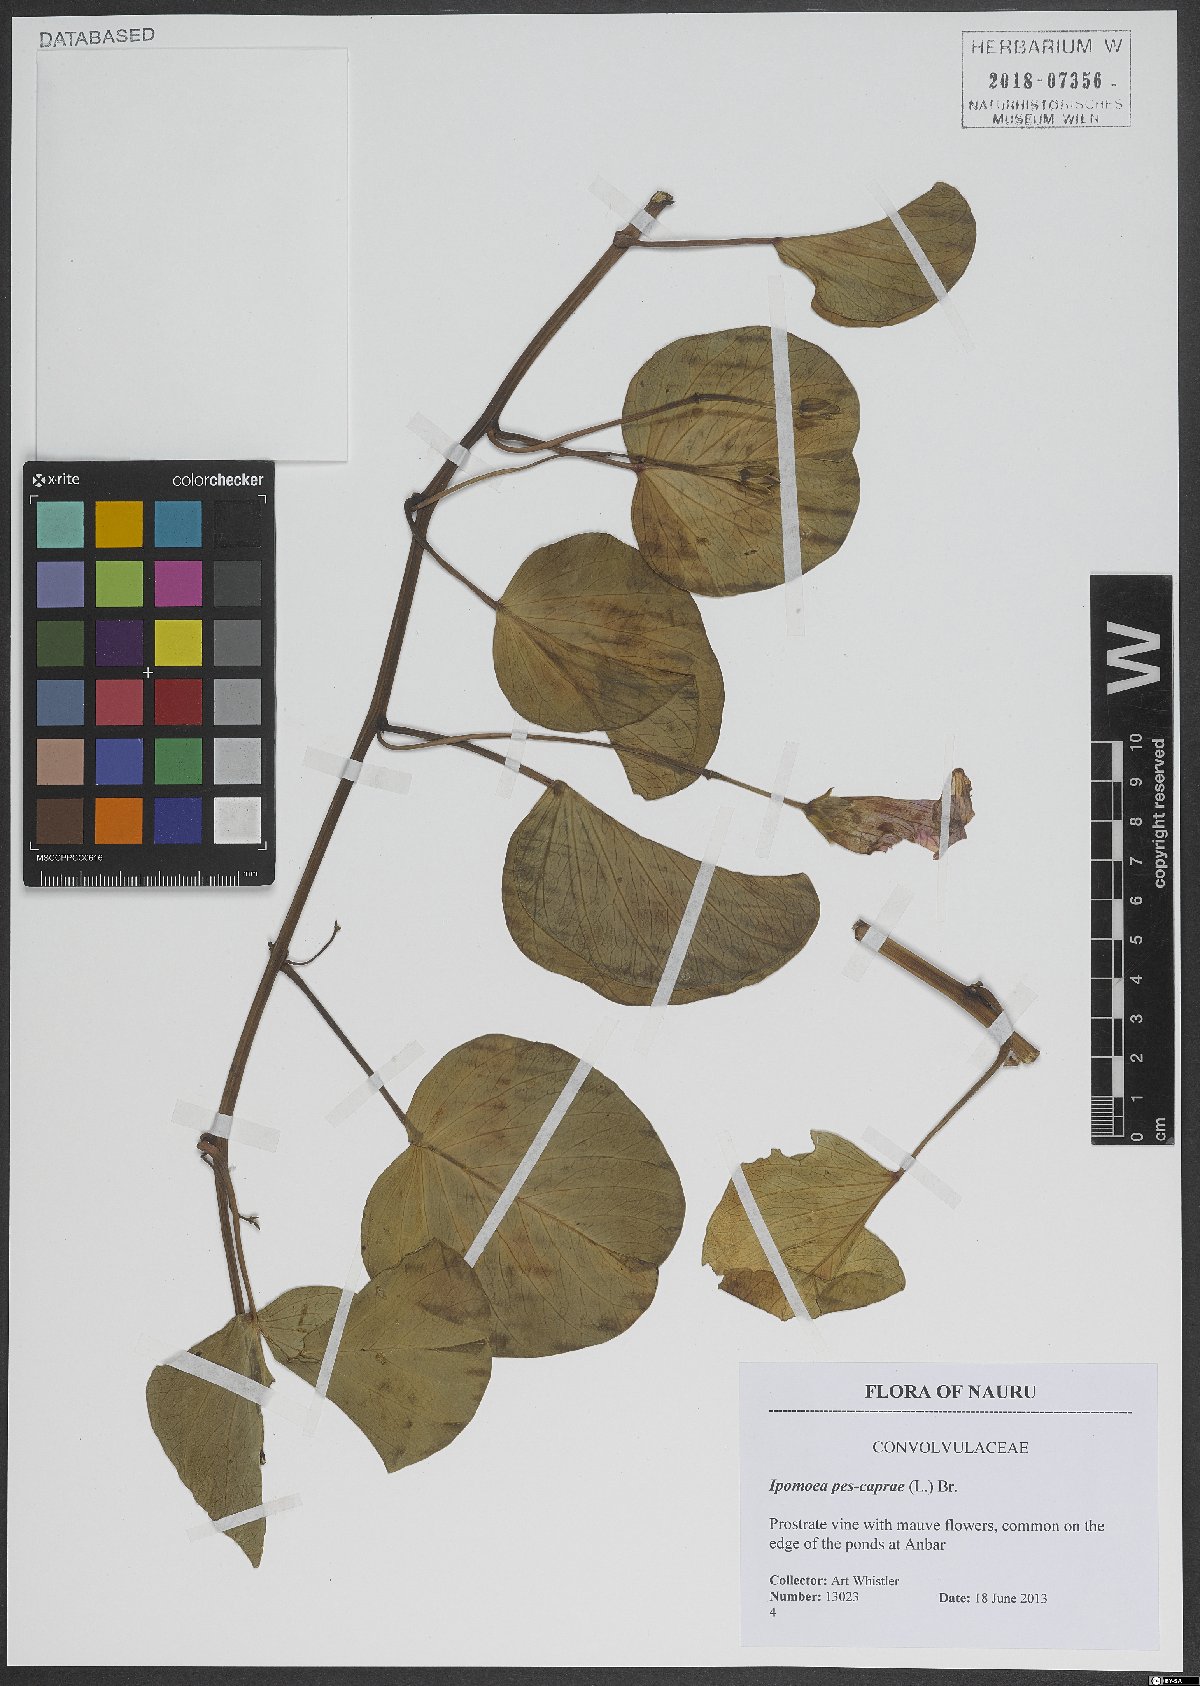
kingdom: Plantae
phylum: Tracheophyta
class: Magnoliopsida
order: Solanales
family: Convolvulaceae
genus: Ipomoea
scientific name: Ipomoea pes-caprae
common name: Beach morning glory
